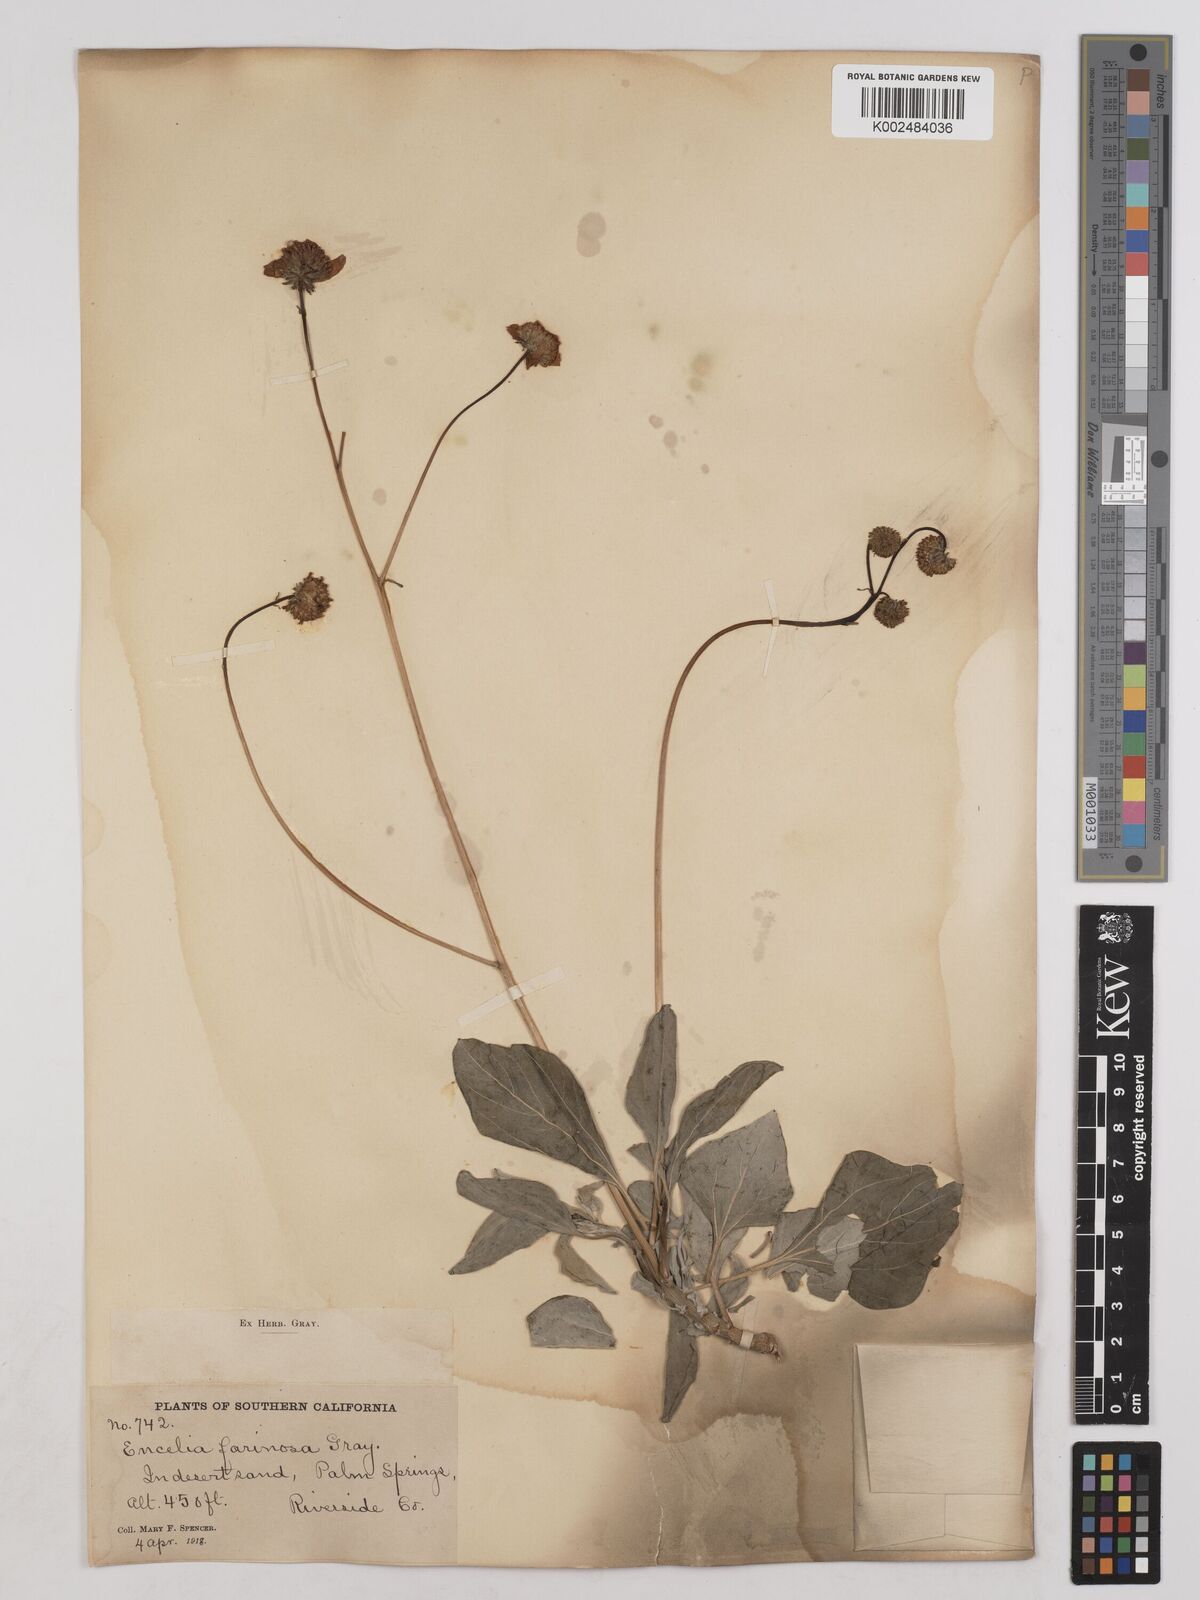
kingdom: Plantae
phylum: Tracheophyta
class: Magnoliopsida
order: Asterales
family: Asteraceae
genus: Encelia
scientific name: Encelia farinosa
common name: Brittlebush
